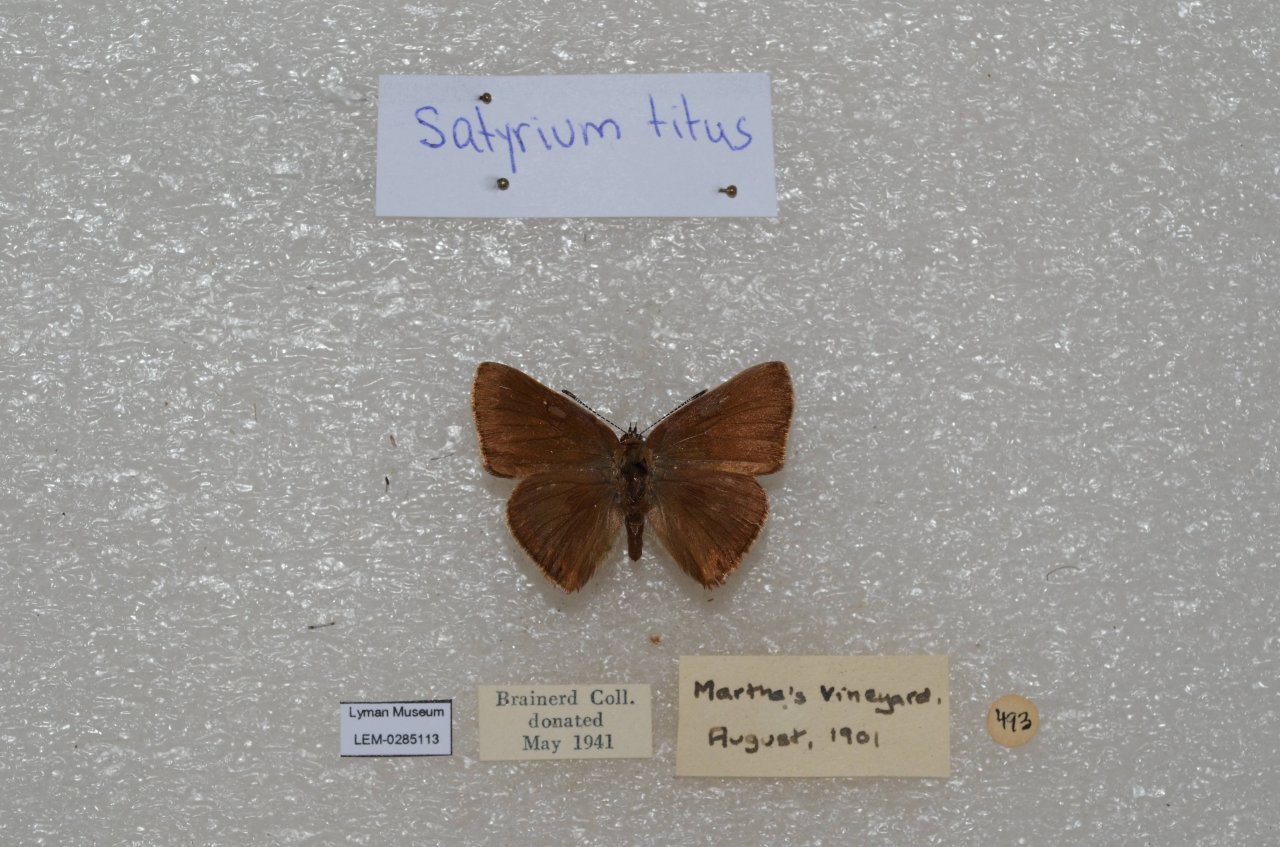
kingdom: Animalia
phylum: Arthropoda
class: Insecta
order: Lepidoptera
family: Lycaenidae
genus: Harkenclenus
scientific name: Harkenclenus titus
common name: Coral Hairstreak
